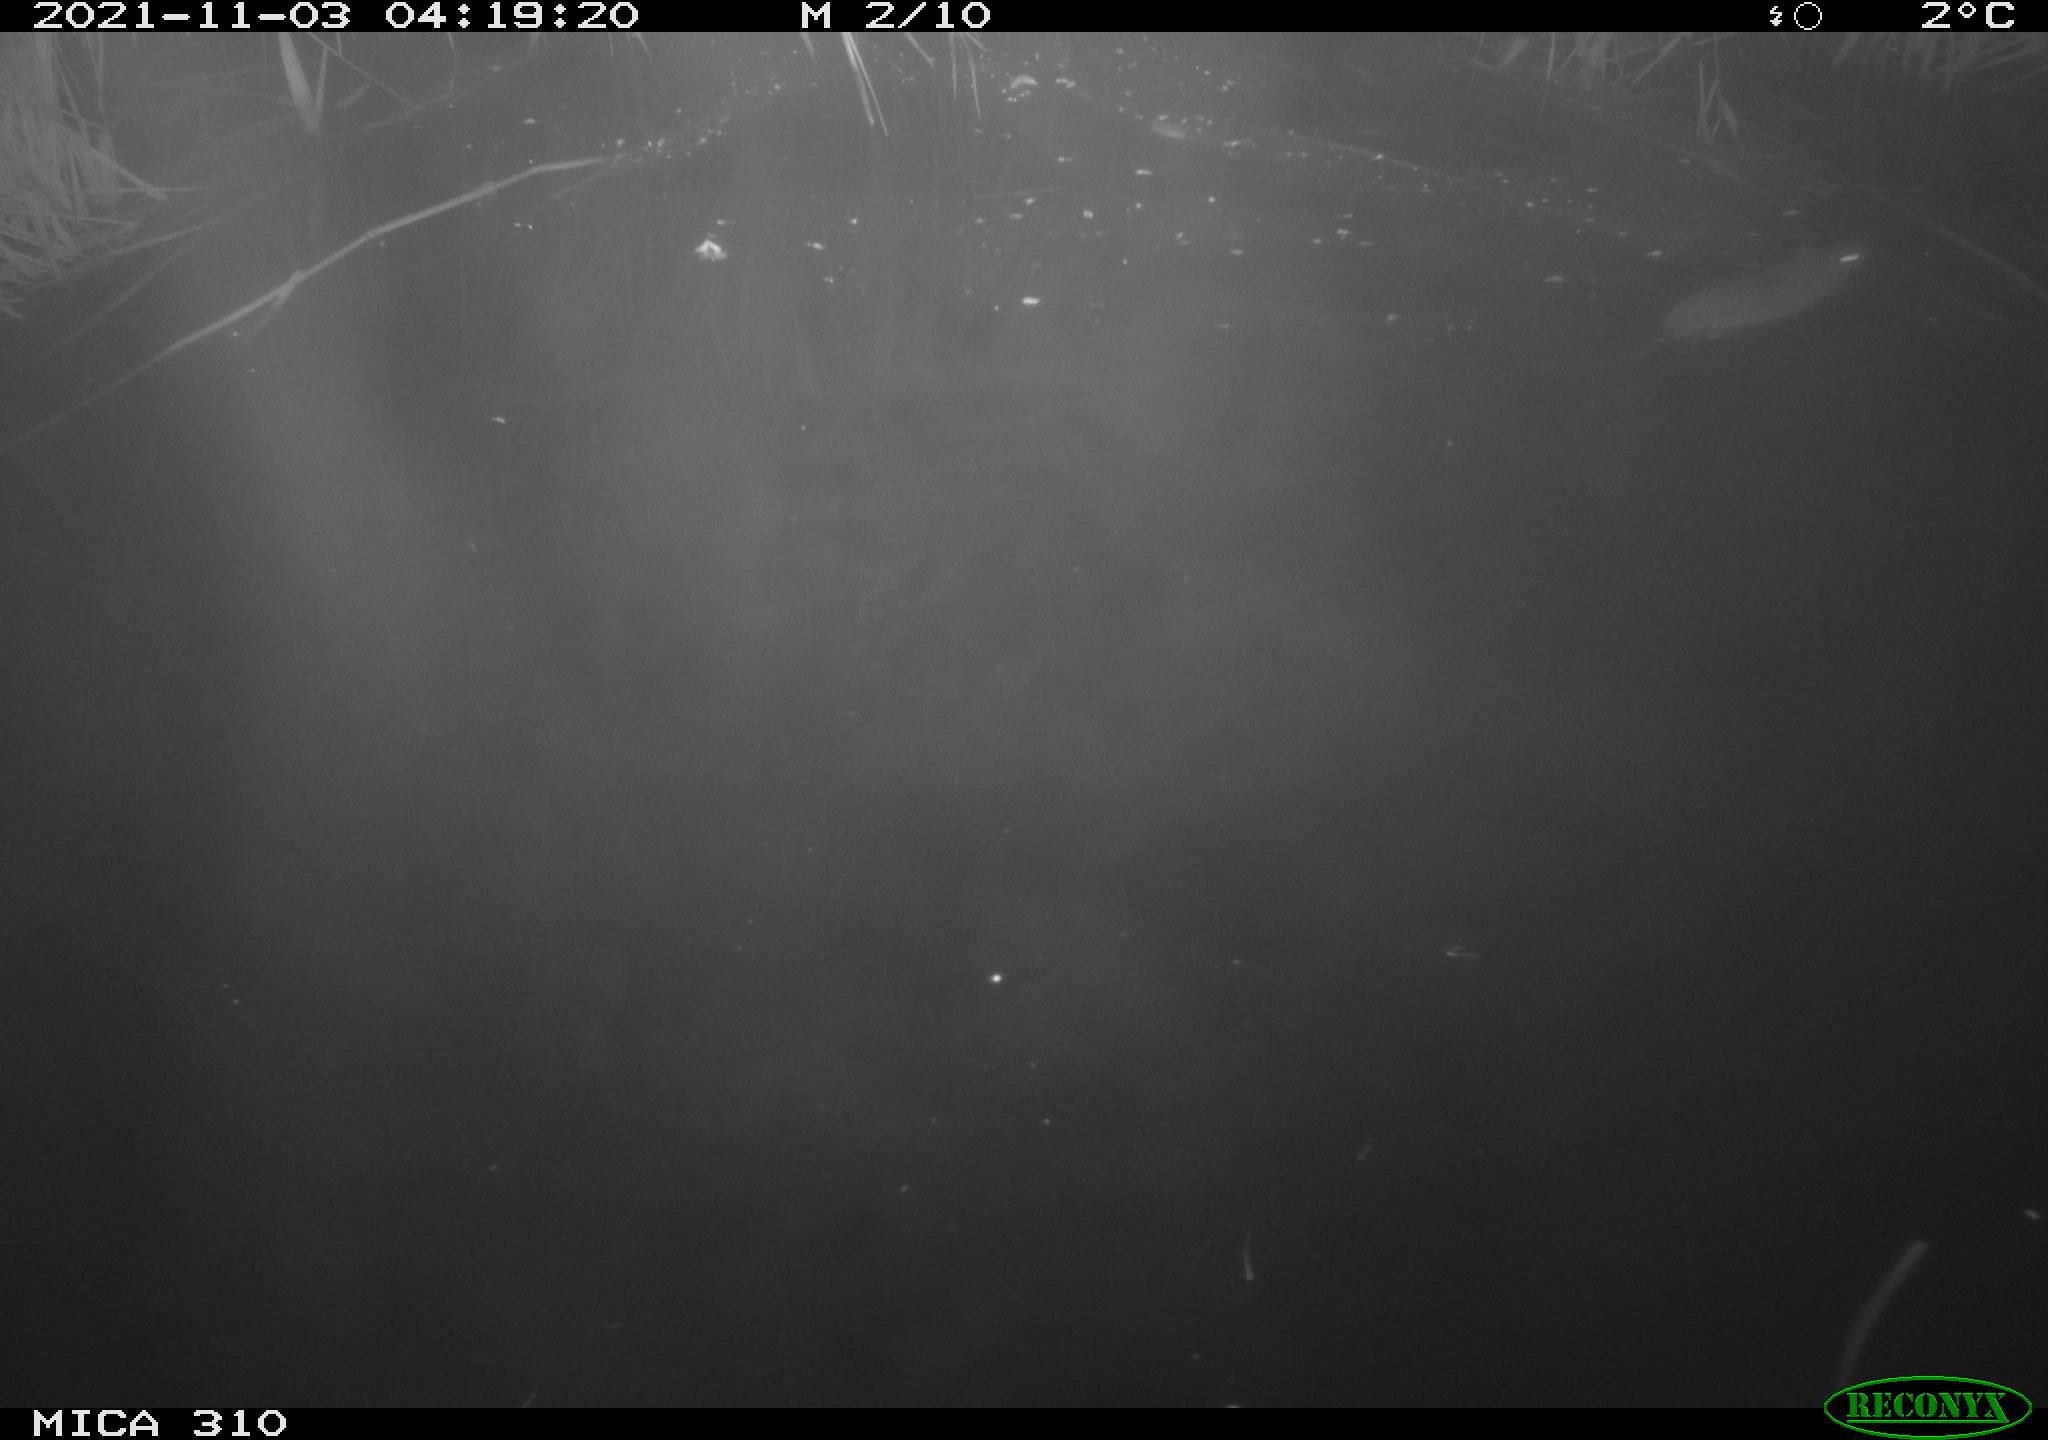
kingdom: Animalia
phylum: Chordata
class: Mammalia
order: Rodentia
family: Muridae
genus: Rattus
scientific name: Rattus norvegicus
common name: Brown rat
